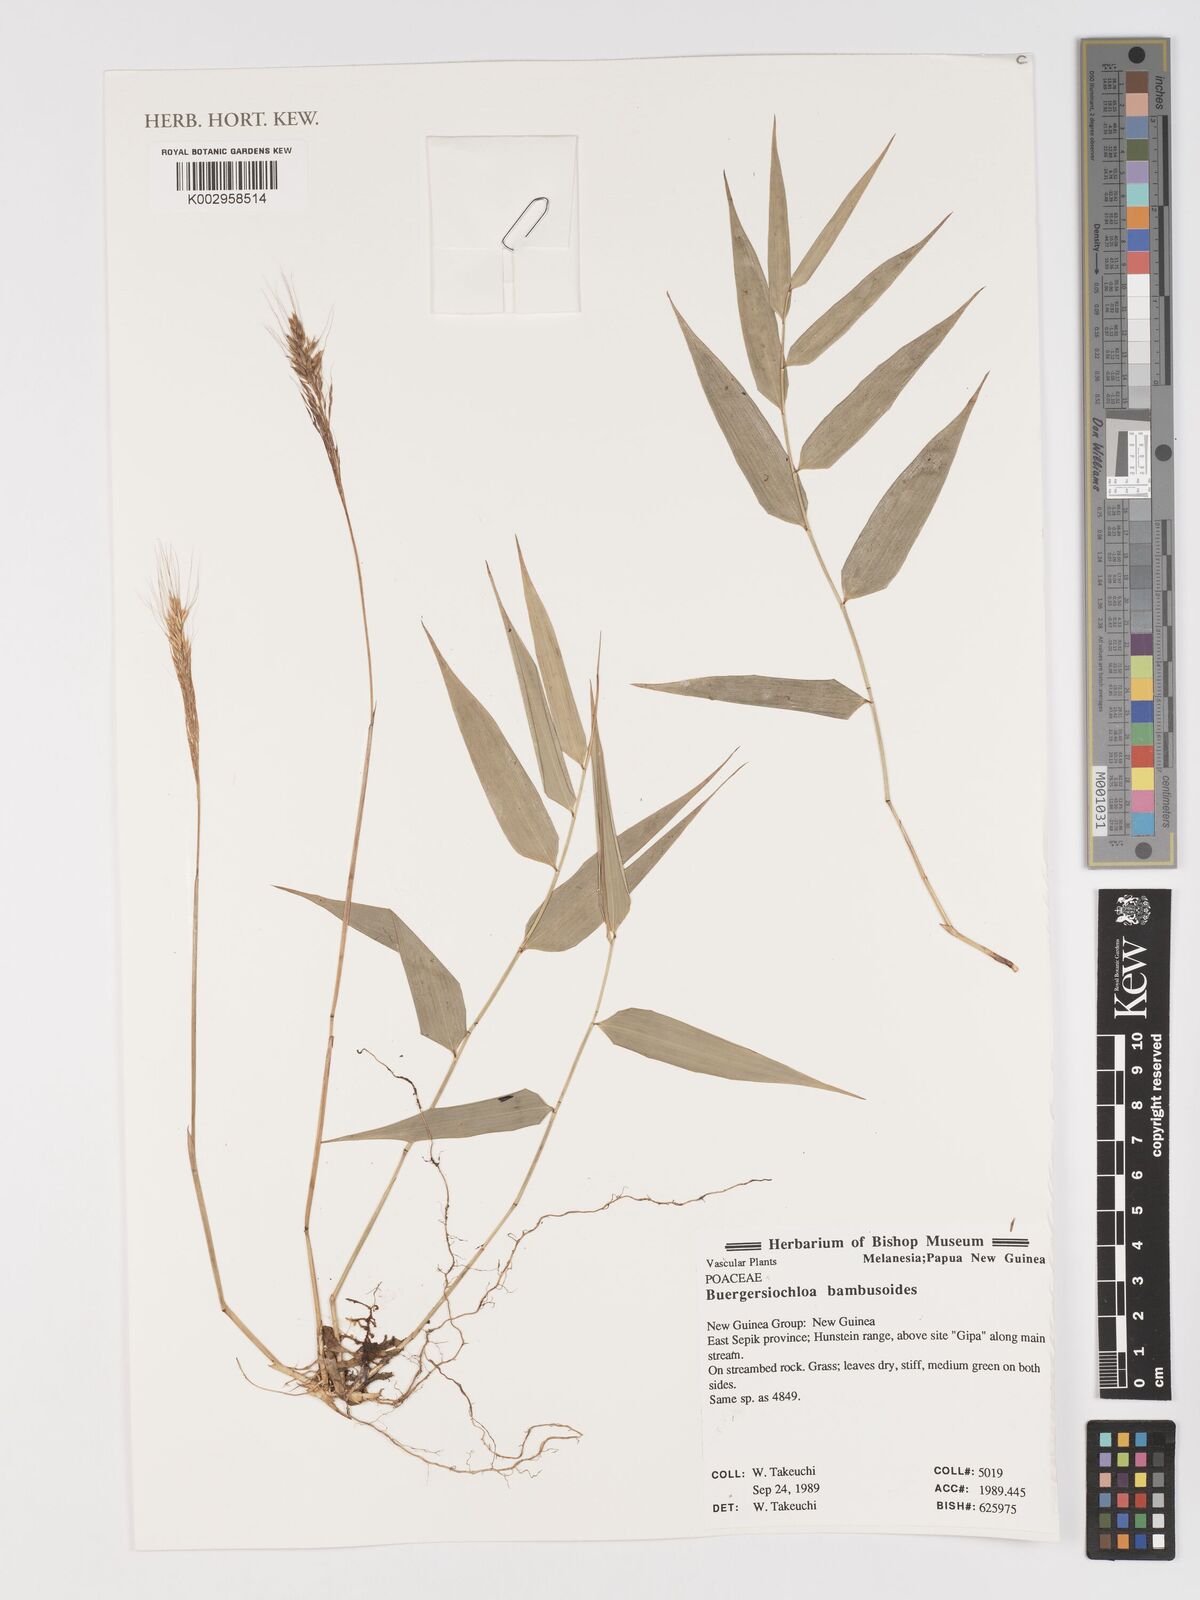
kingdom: Plantae
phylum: Tracheophyta
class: Liliopsida
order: Poales
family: Poaceae
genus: Buergersiochloa
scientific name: Buergersiochloa bambusoides
